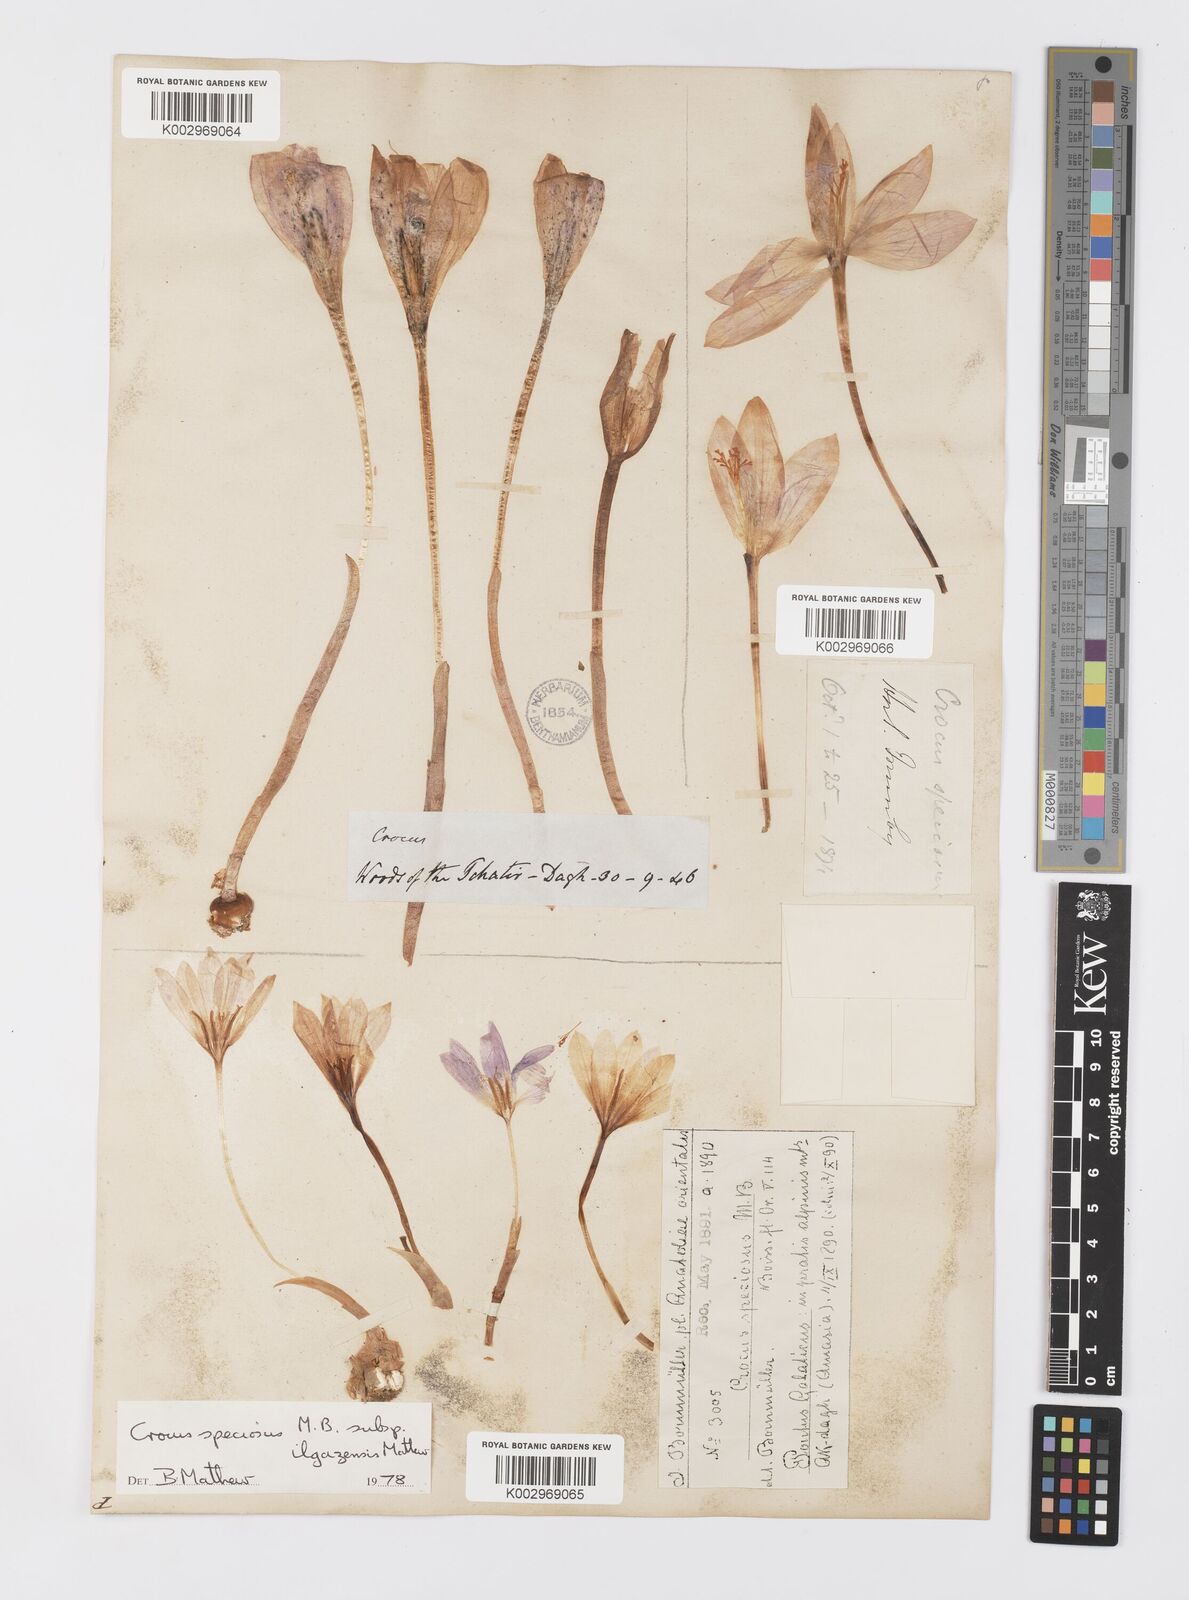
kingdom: Plantae
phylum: Tracheophyta
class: Liliopsida
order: Asparagales
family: Iridaceae
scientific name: Iridaceae
